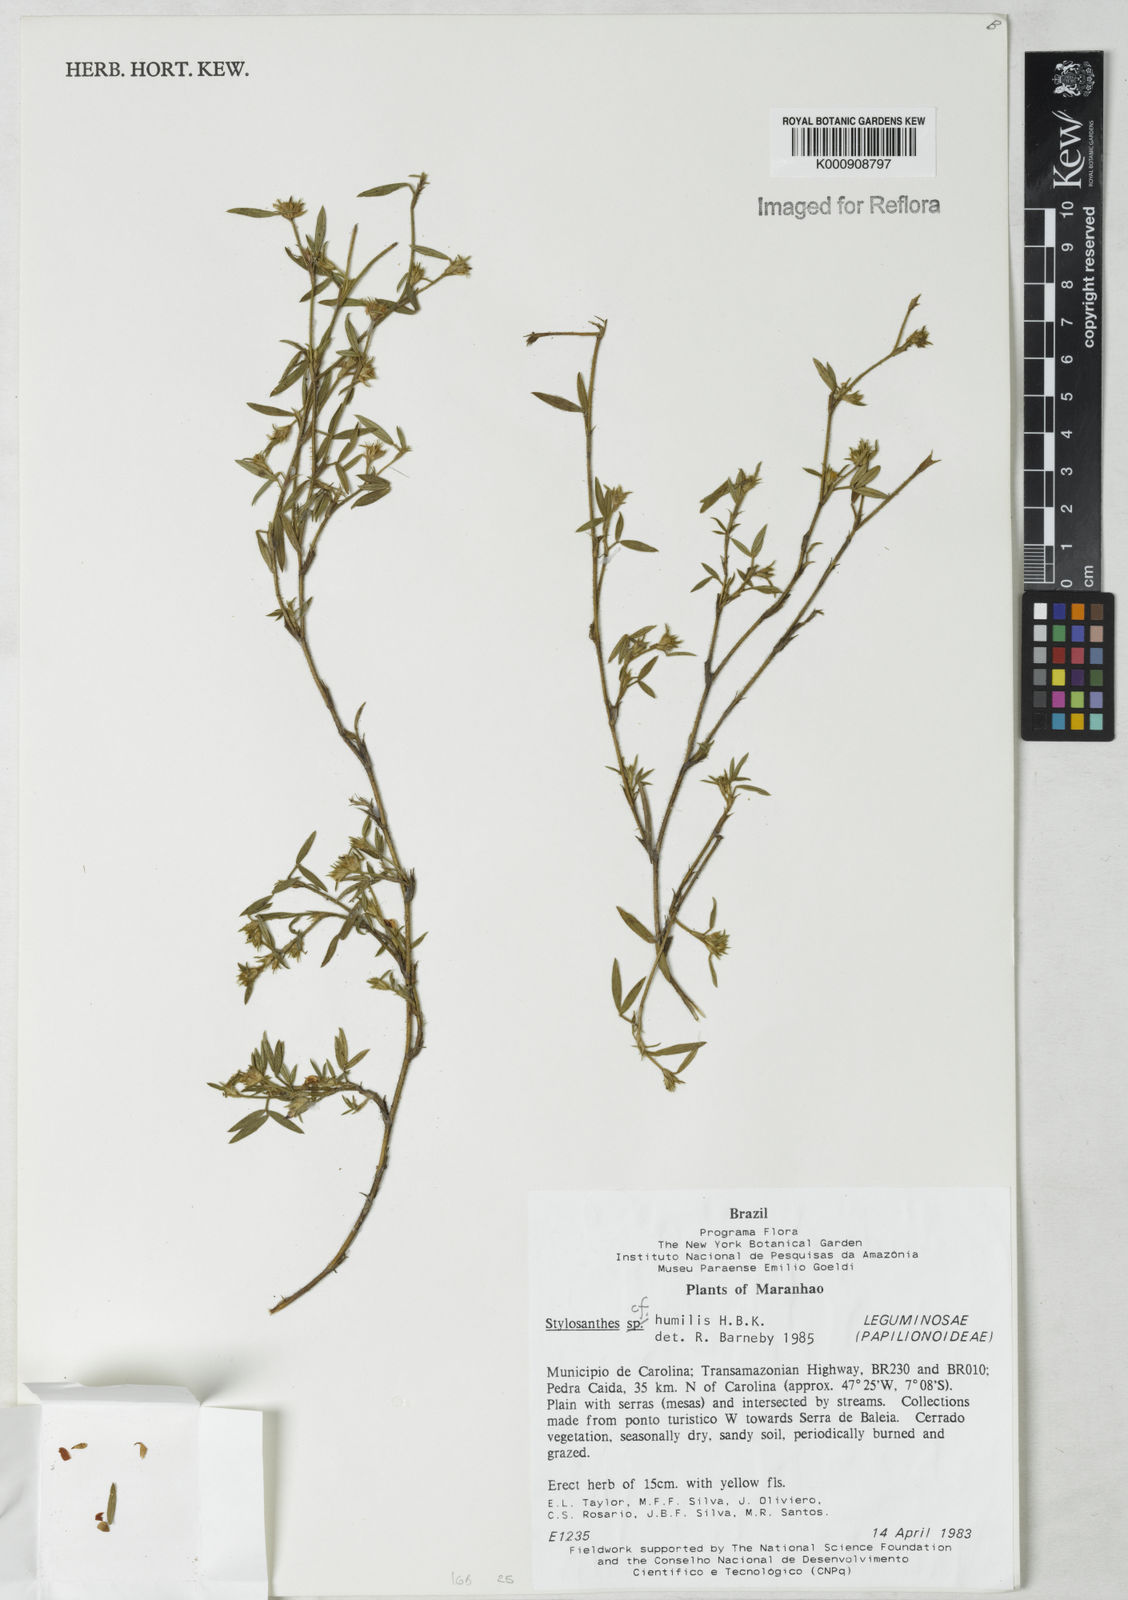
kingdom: Plantae
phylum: Tracheophyta
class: Magnoliopsida
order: Fabales
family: Fabaceae
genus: Stylosanthes
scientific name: Stylosanthes humilis
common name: Townsville stylo
